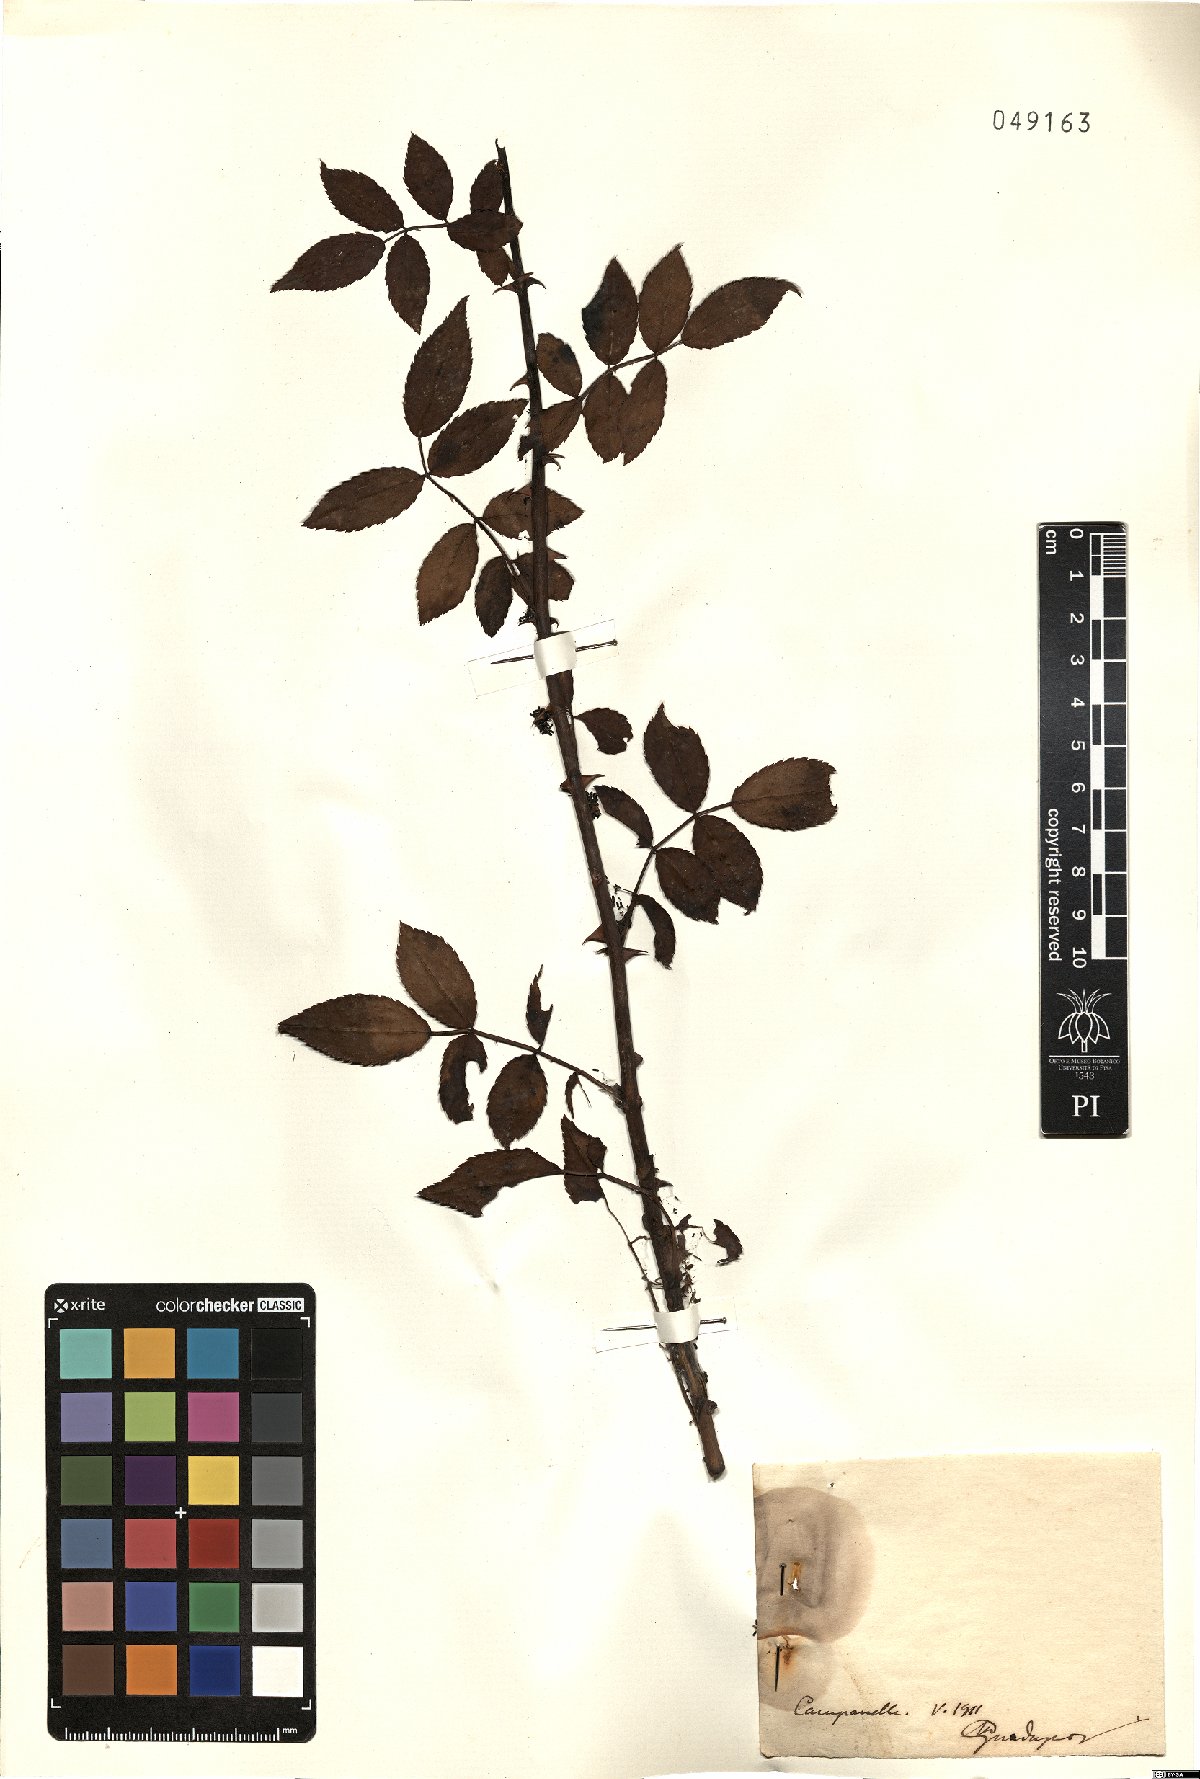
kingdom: Plantae
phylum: Tracheophyta
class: Magnoliopsida
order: Rosales
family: Rosaceae
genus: Rosa
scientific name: Rosa
